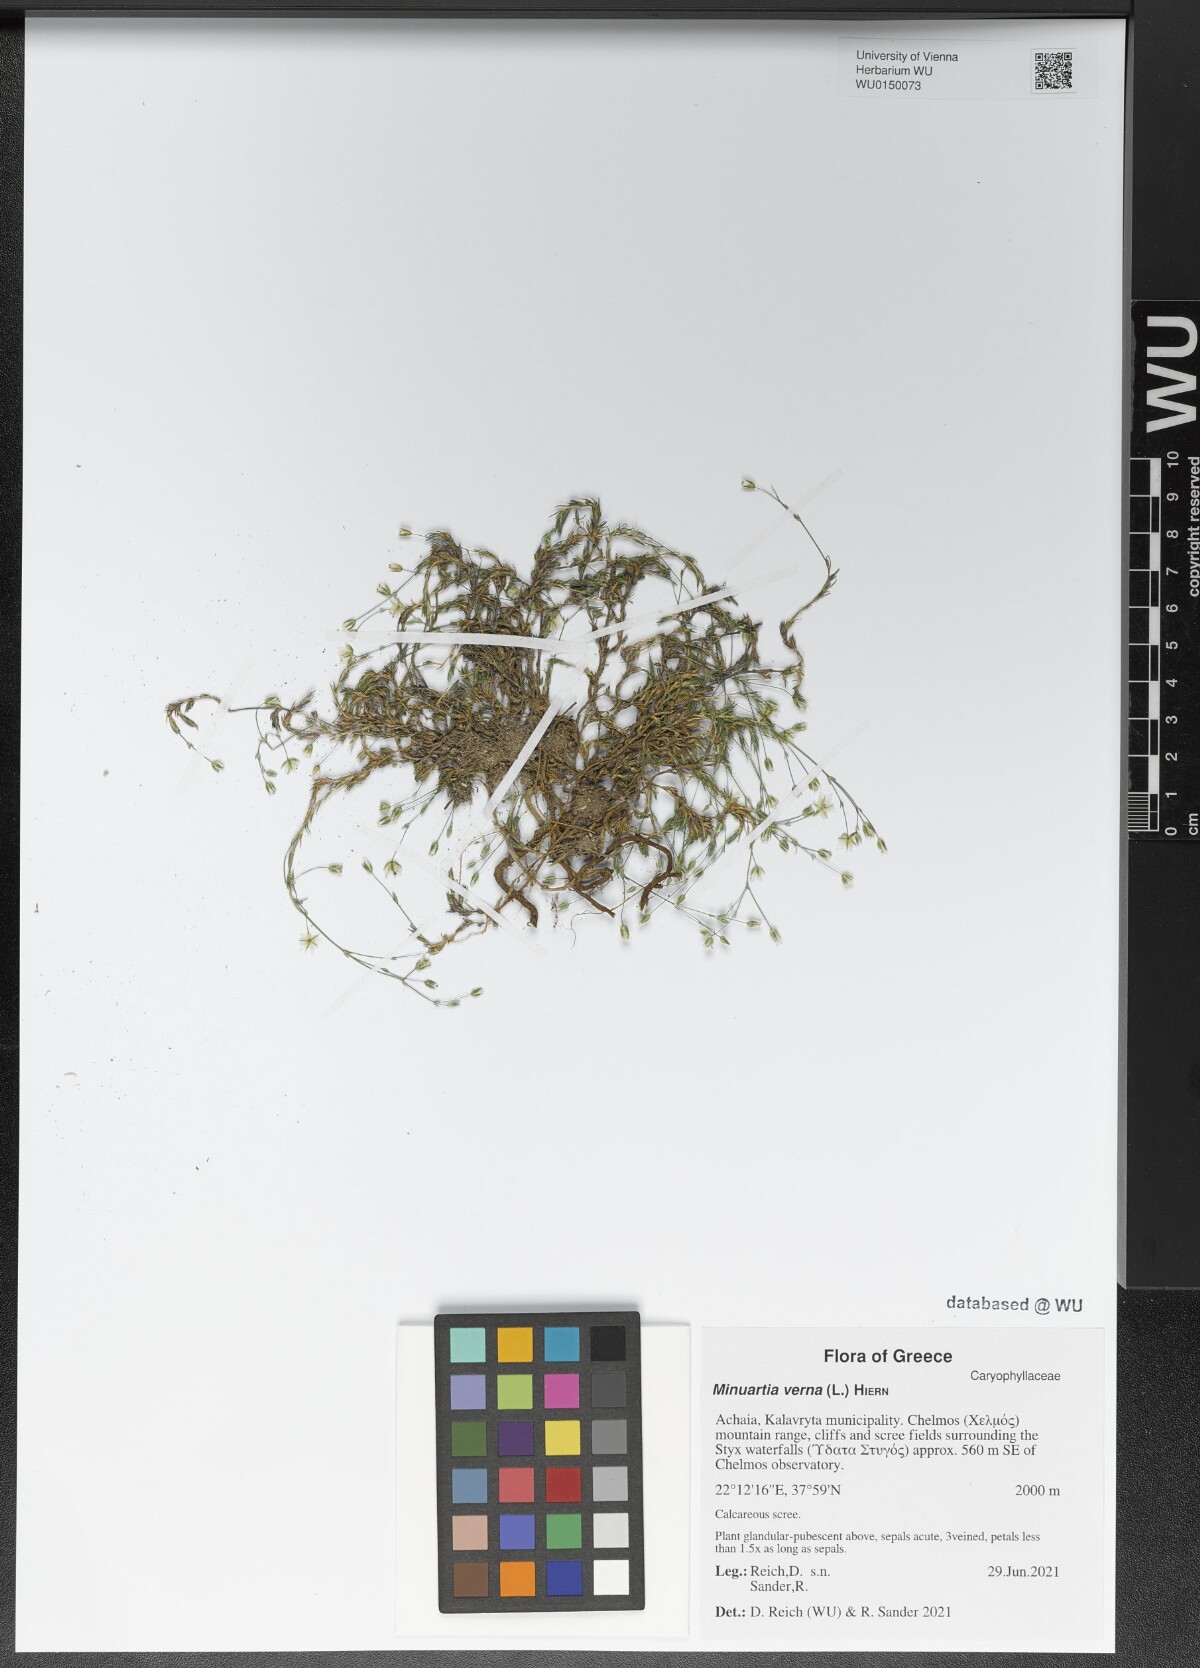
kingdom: Plantae
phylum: Tracheophyta
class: Magnoliopsida
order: Caryophyllales
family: Caryophyllaceae
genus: Sabulina
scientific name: Sabulina verna
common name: Spring sandwort
